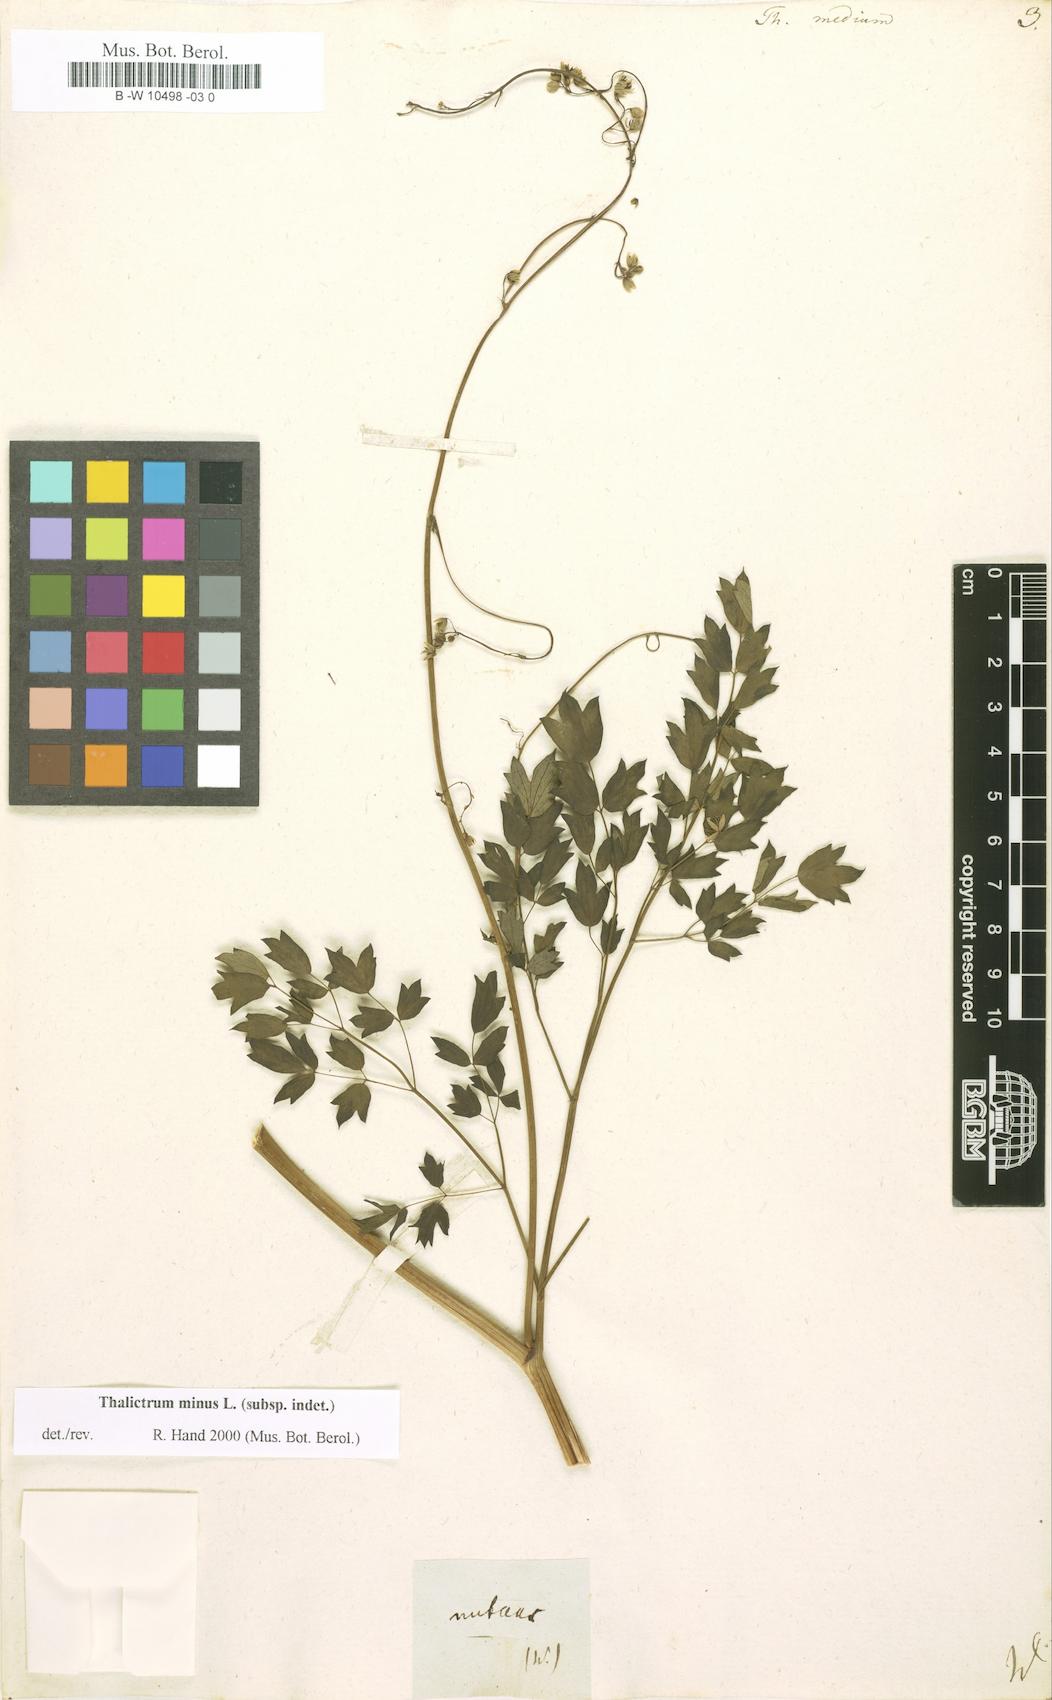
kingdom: Plantae
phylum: Tracheophyta
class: Magnoliopsida
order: Ranunculales
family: Ranunculaceae
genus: Thalictrum
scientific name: Thalictrum medium
